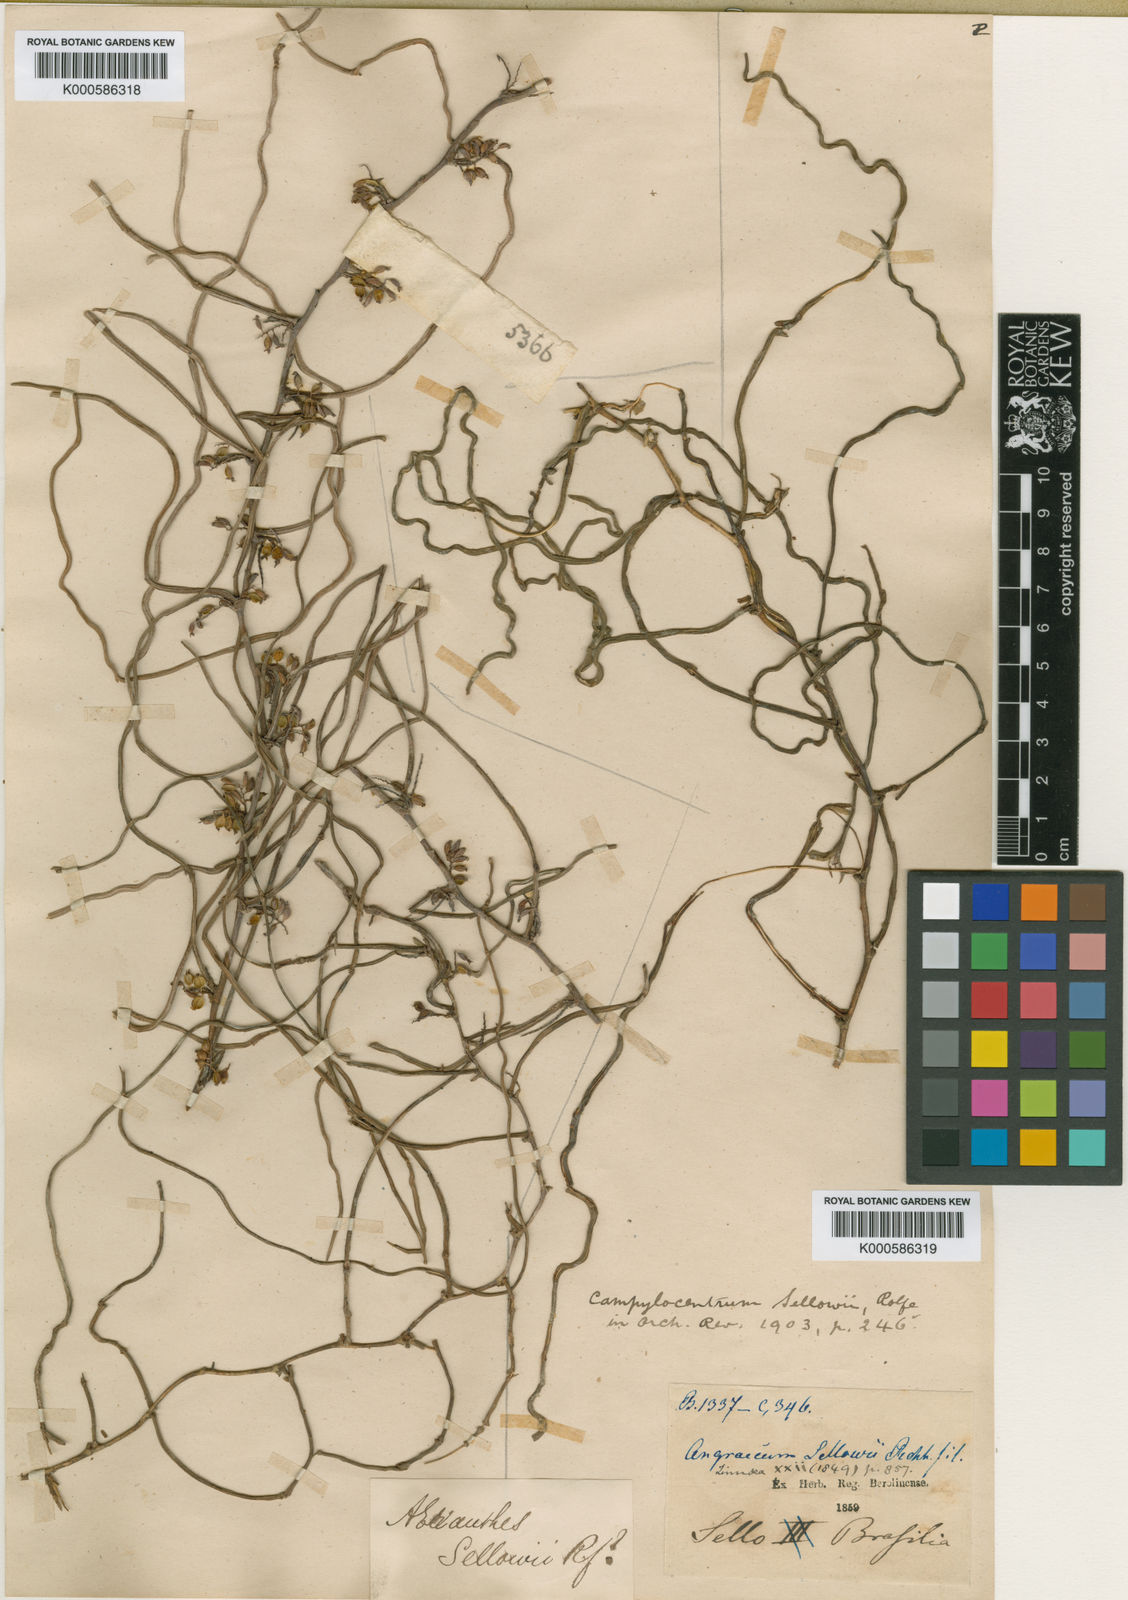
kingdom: Plantae
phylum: Tracheophyta
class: Liliopsida
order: Asparagales
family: Orchidaceae
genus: Campylocentrum
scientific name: Campylocentrum sellowii
